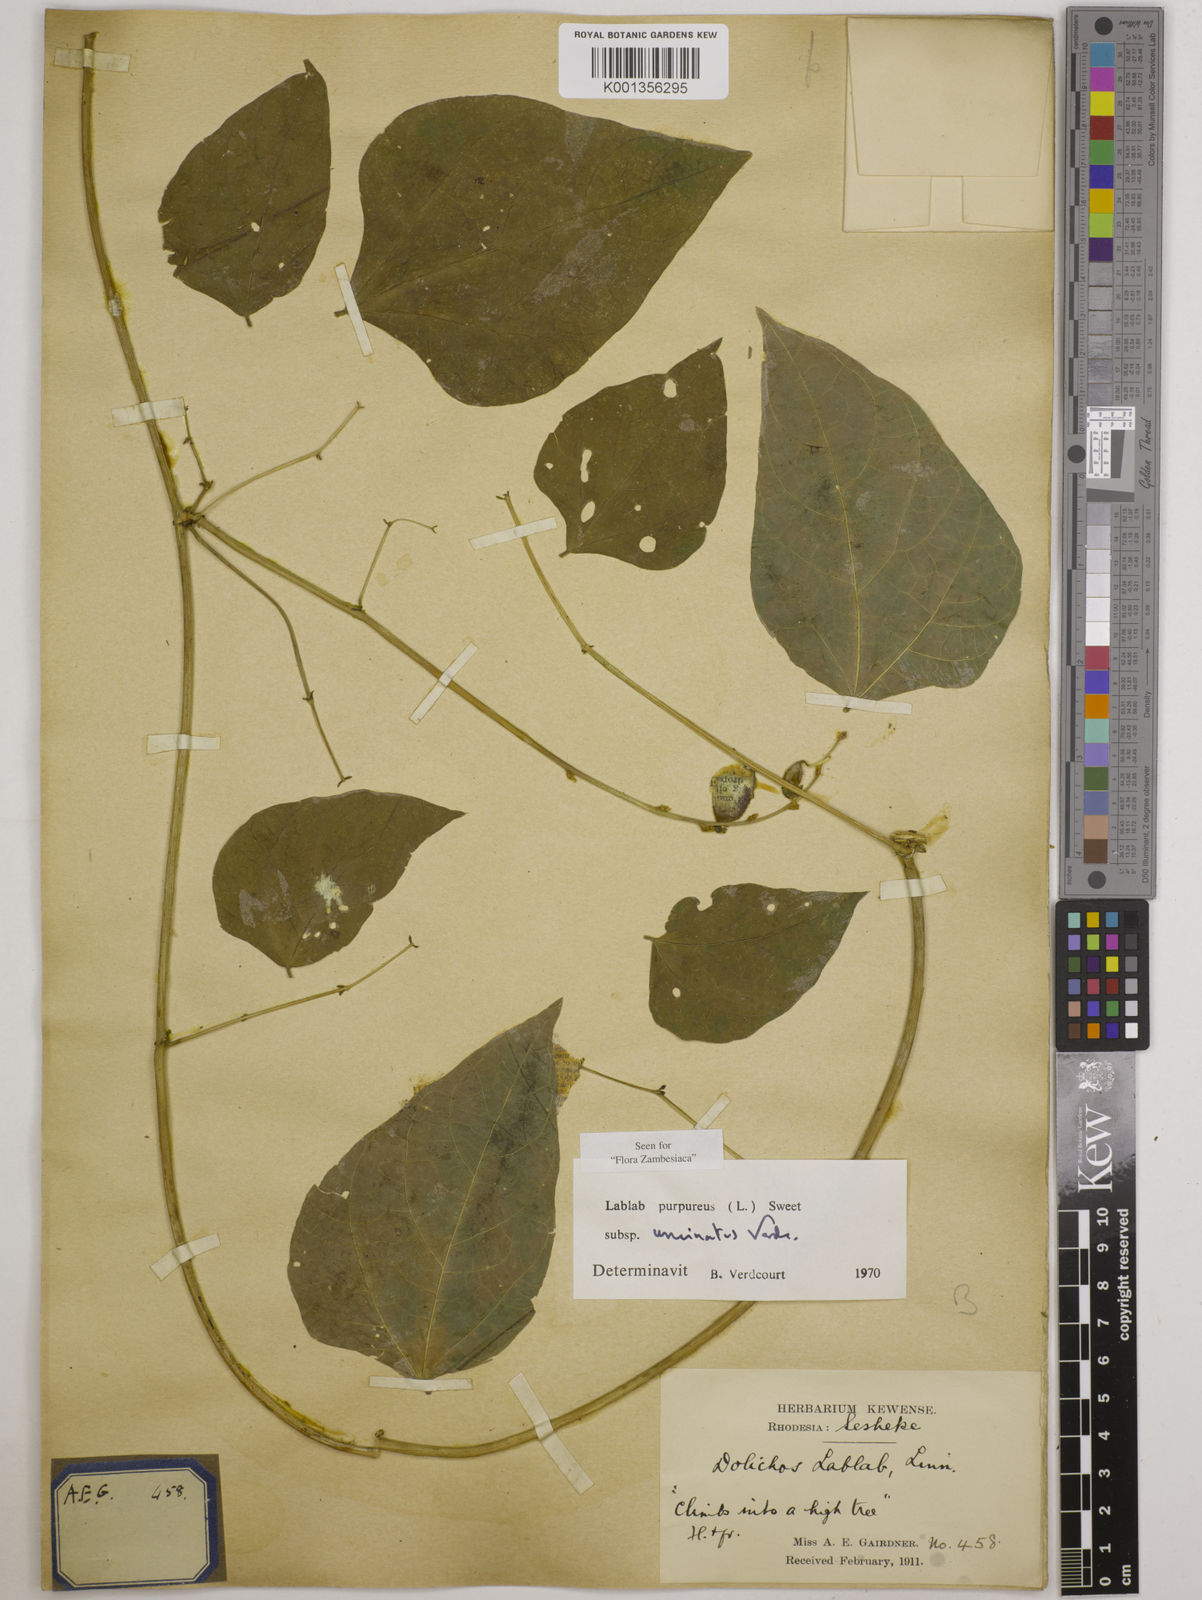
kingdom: Plantae
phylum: Tracheophyta
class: Magnoliopsida
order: Fabales
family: Fabaceae
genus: Lablab
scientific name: Lablab
